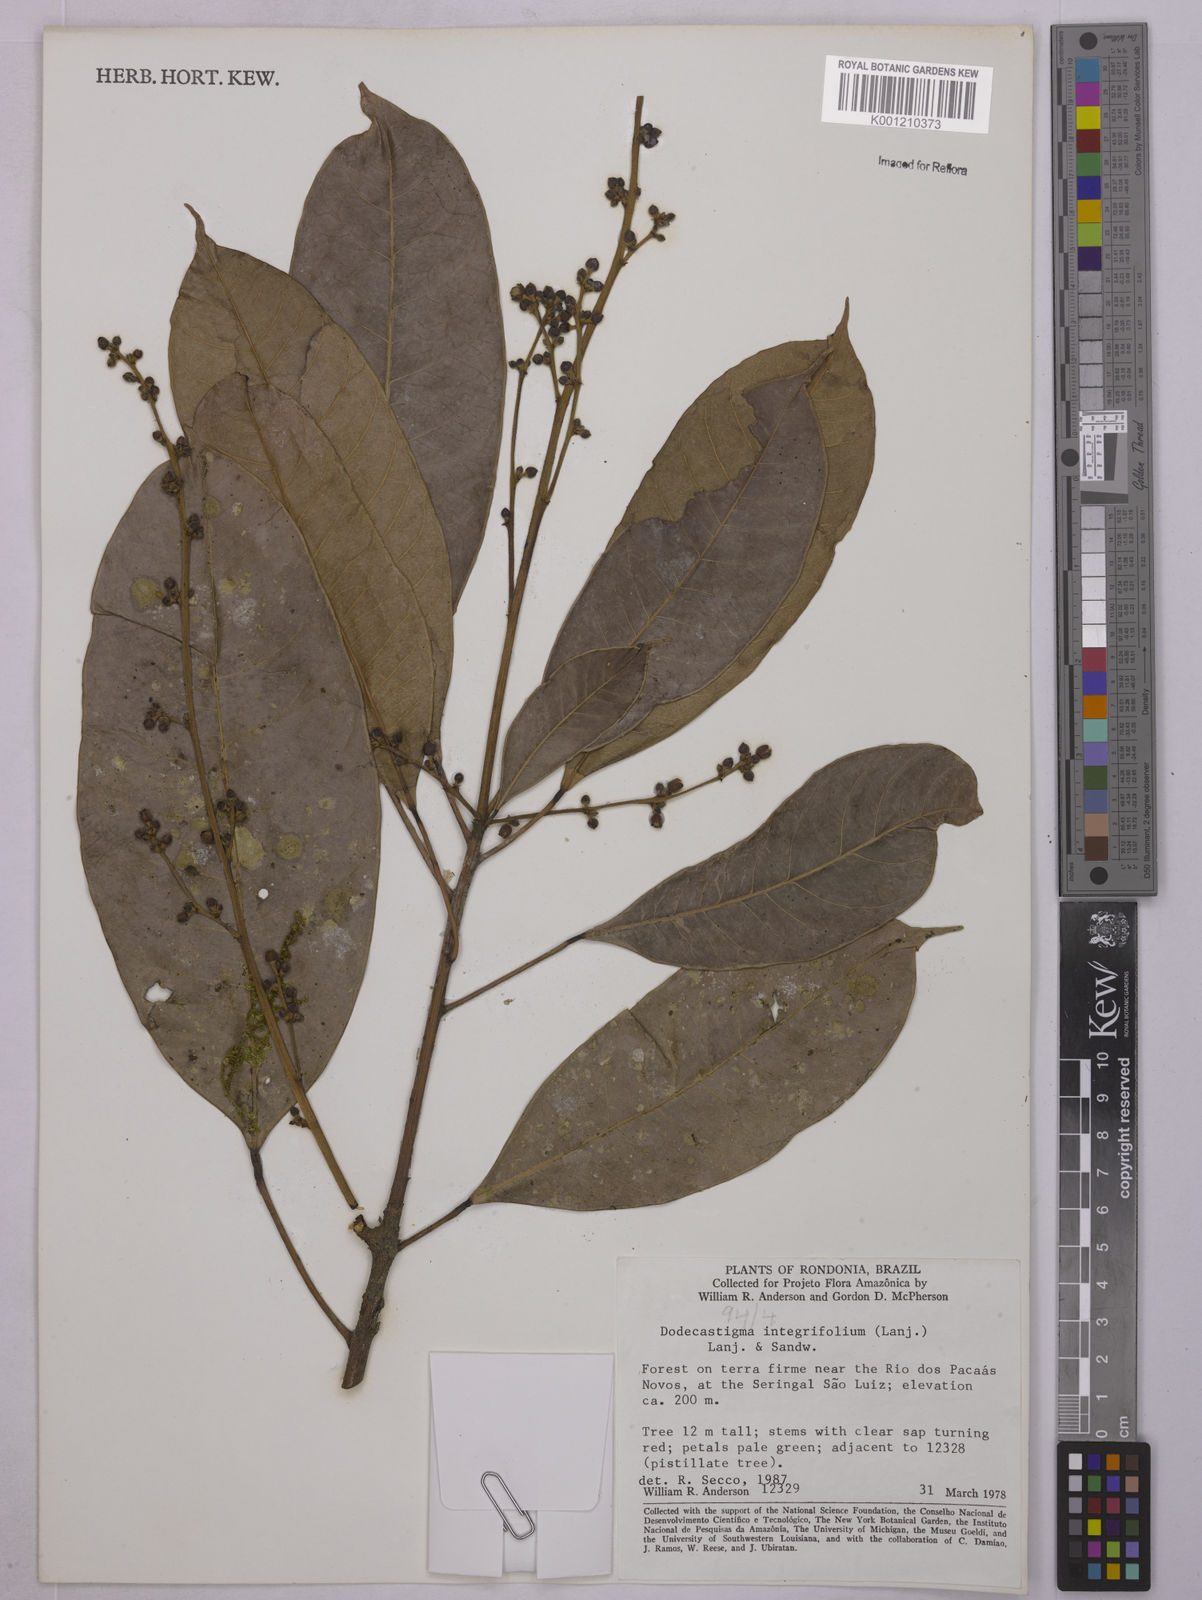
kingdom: Plantae
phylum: Tracheophyta
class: Magnoliopsida
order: Malpighiales
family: Euphorbiaceae
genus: Dodecastigma
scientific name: Dodecastigma integrifolium
